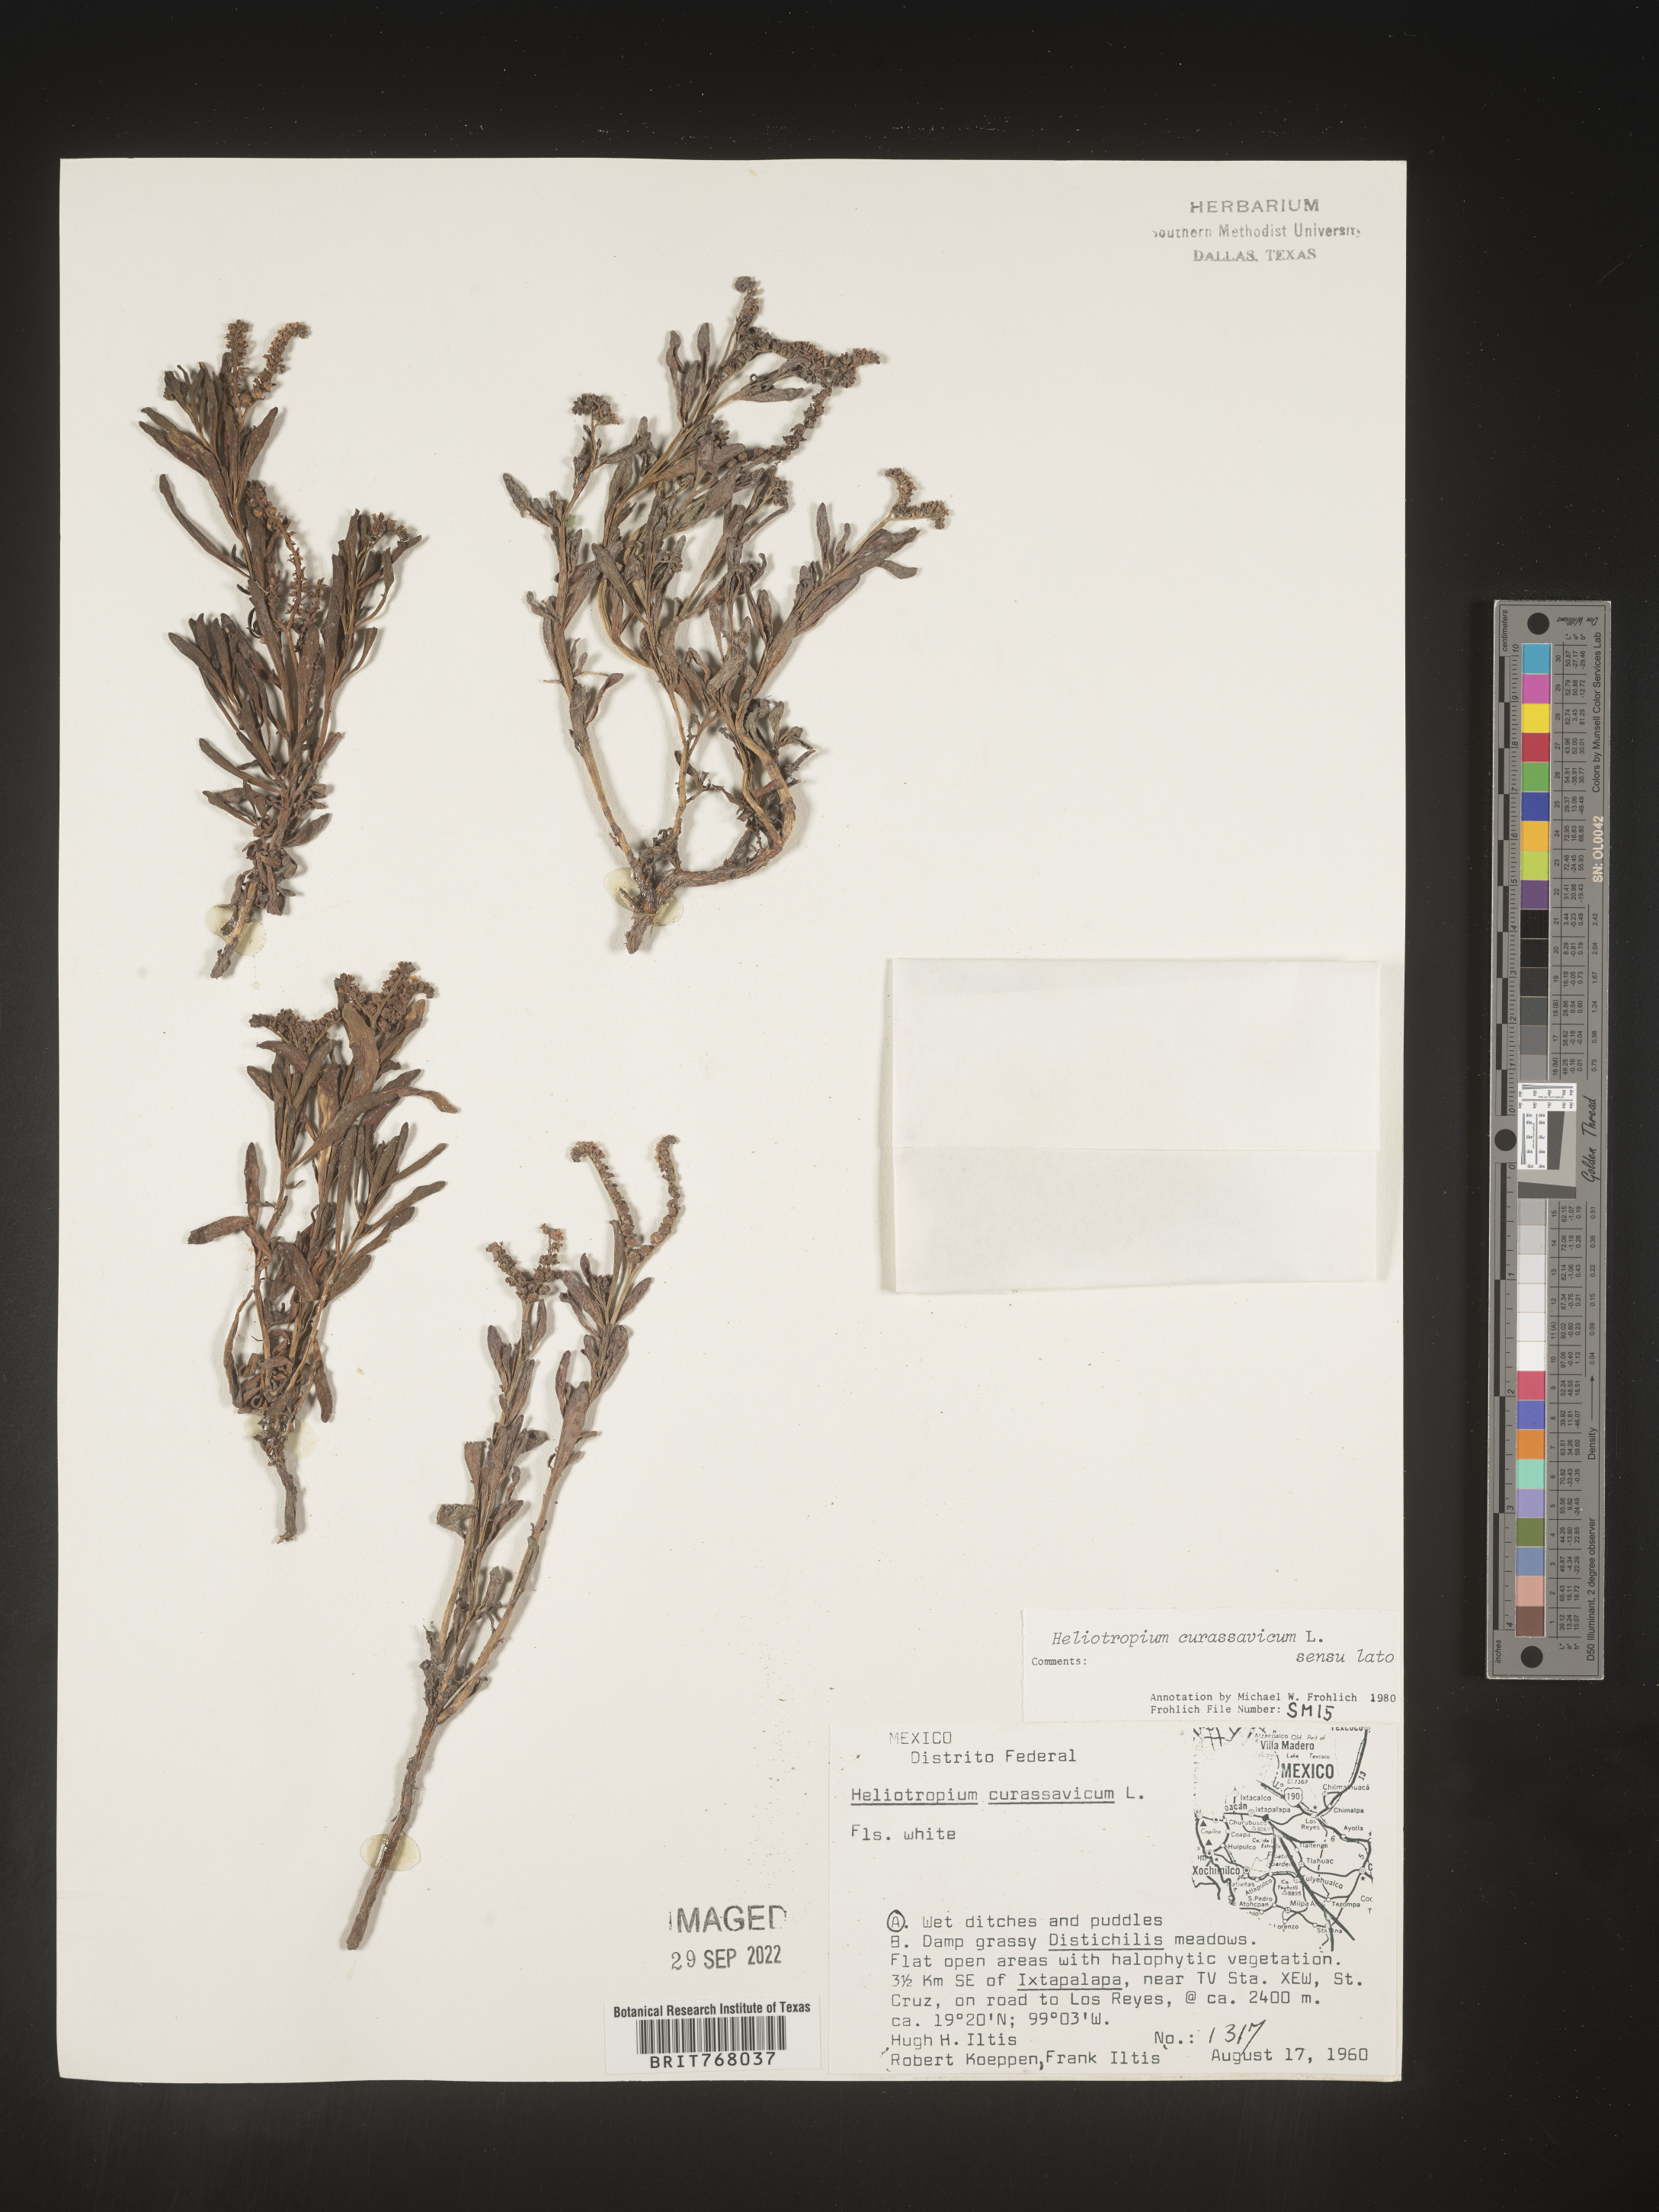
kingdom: Plantae
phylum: Tracheophyta
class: Magnoliopsida
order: Boraginales
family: Heliotropiaceae
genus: Heliotropium
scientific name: Heliotropium curassavicum
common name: Seaside heliotrope
